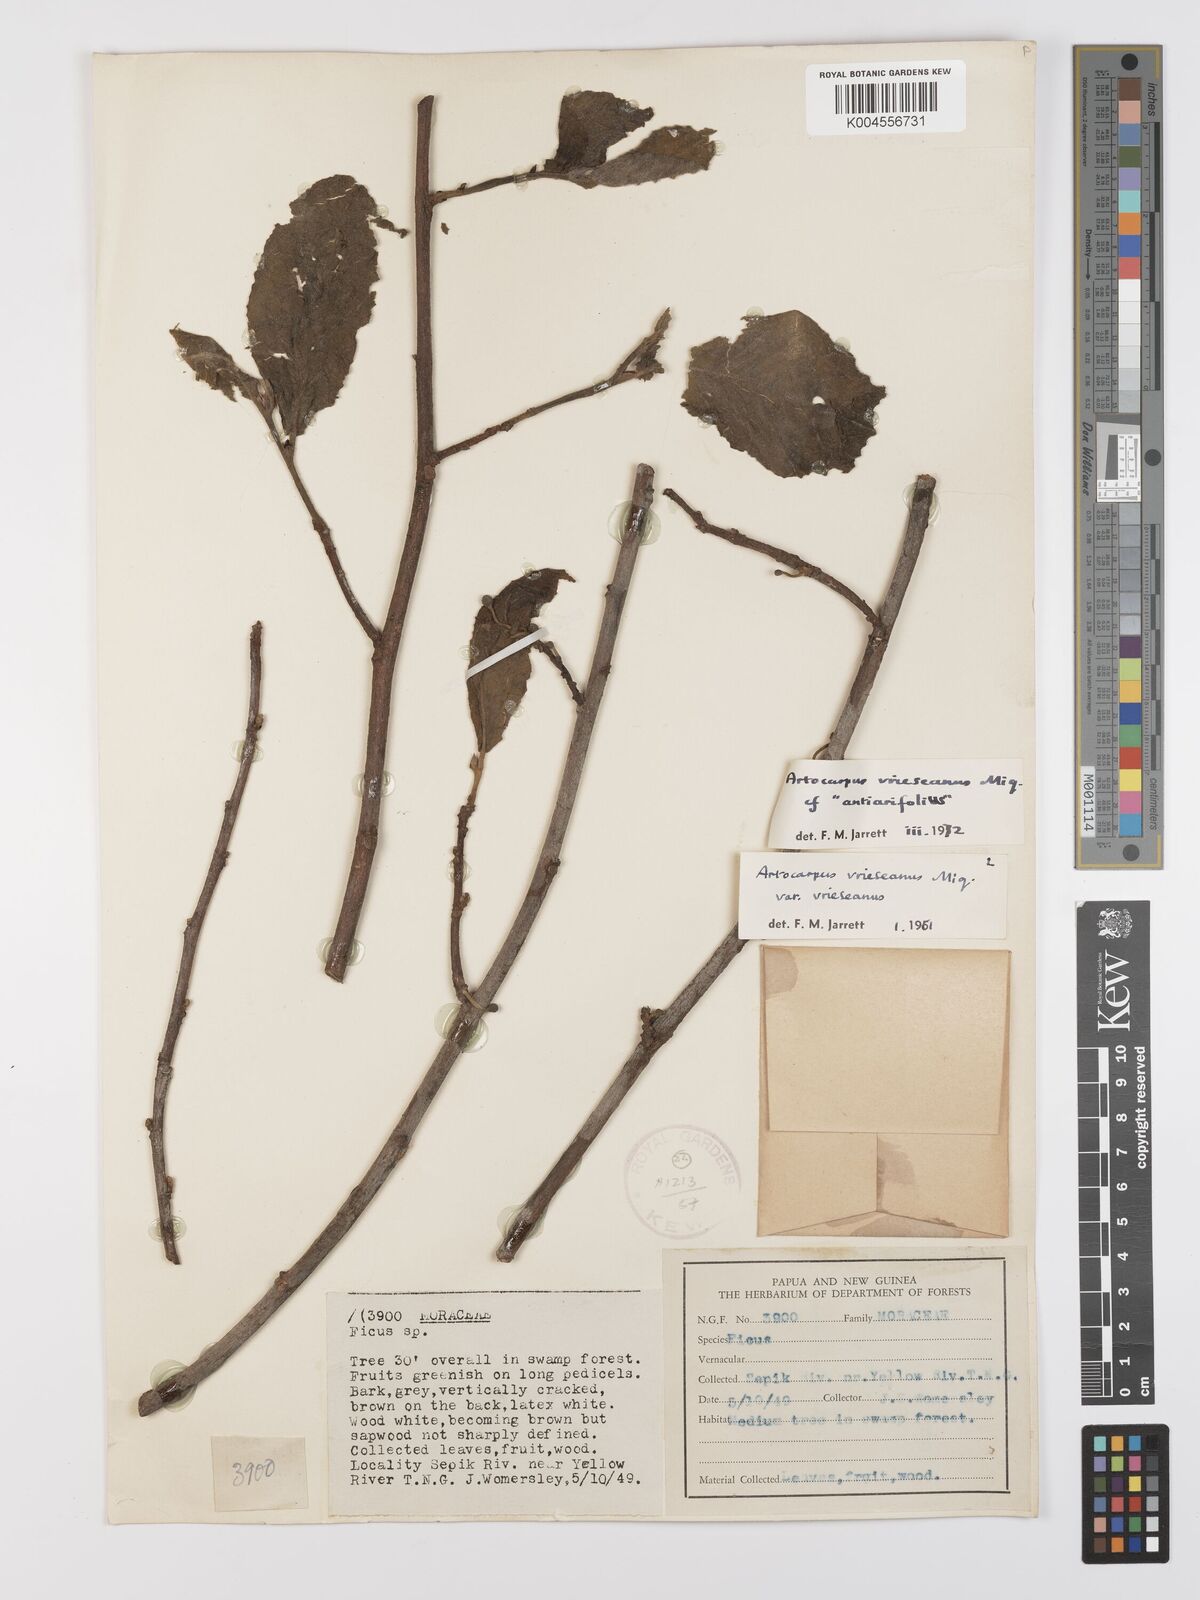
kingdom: Plantae
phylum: Tracheophyta
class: Magnoliopsida
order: Rosales
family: Moraceae
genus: Artocarpus
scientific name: Artocarpus vrieseanus
